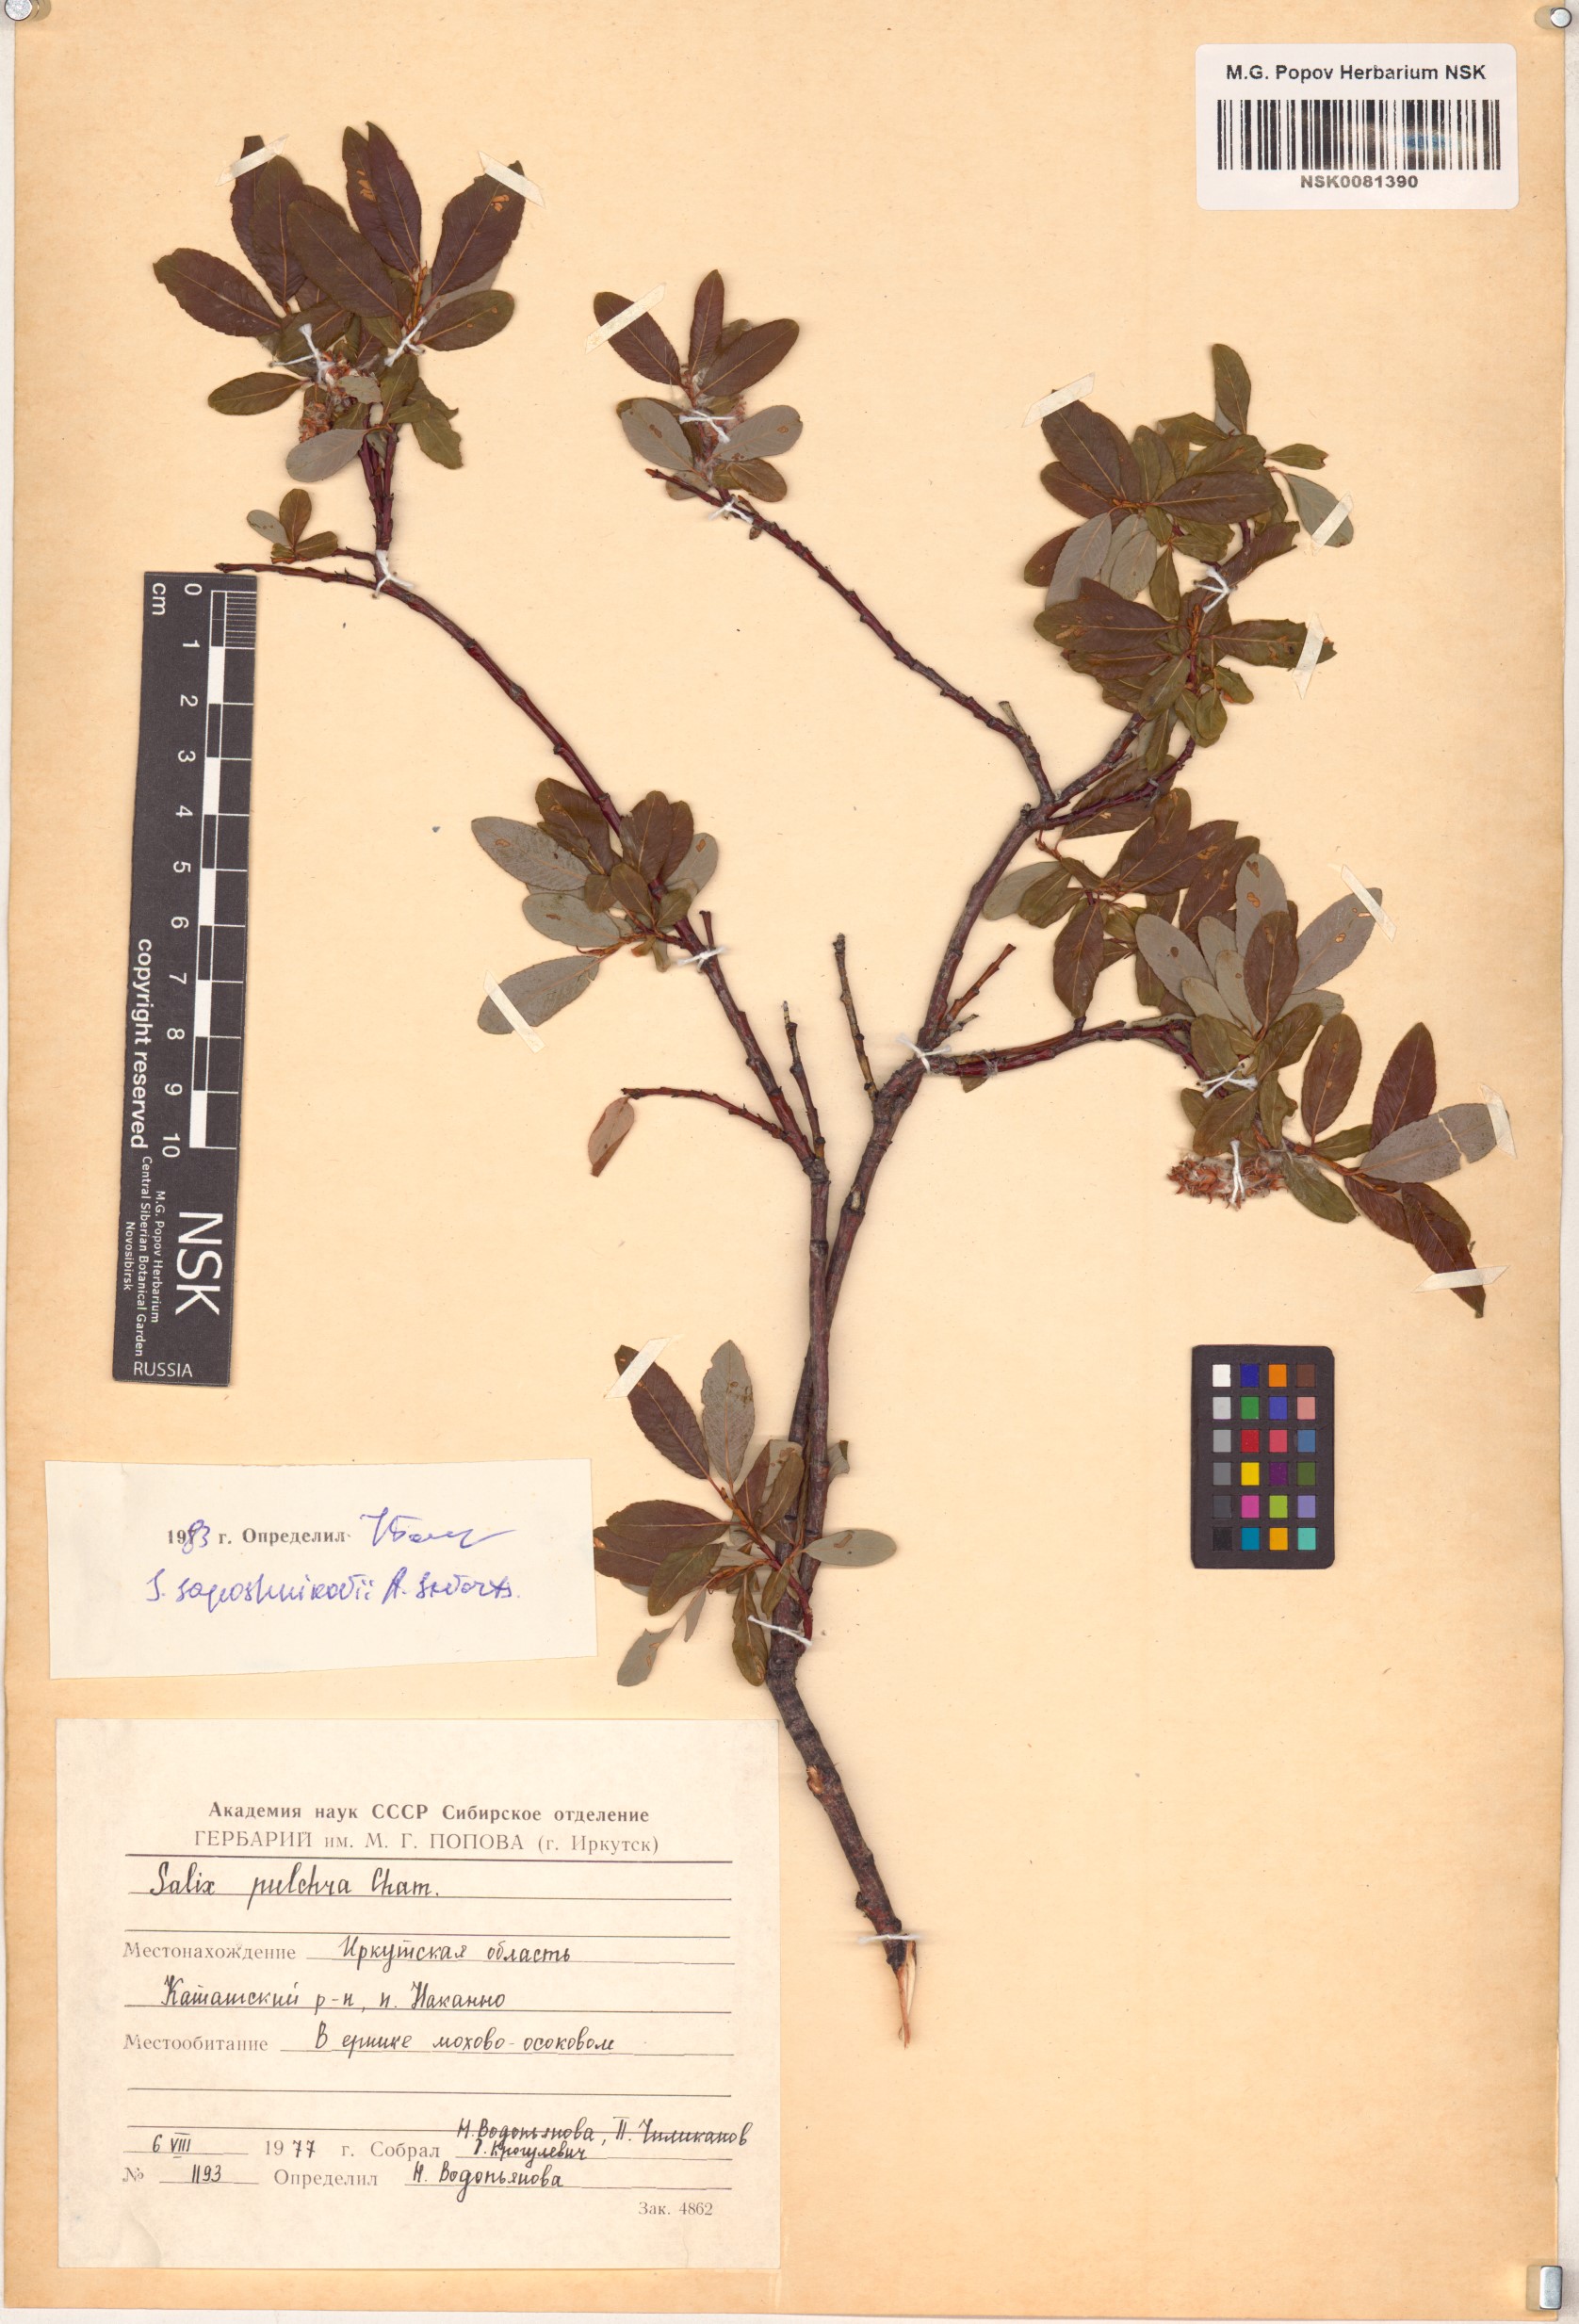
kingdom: Plantae
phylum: Tracheophyta
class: Magnoliopsida
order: Malpighiales
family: Salicaceae
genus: Salix
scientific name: Salix saposhnikovii
